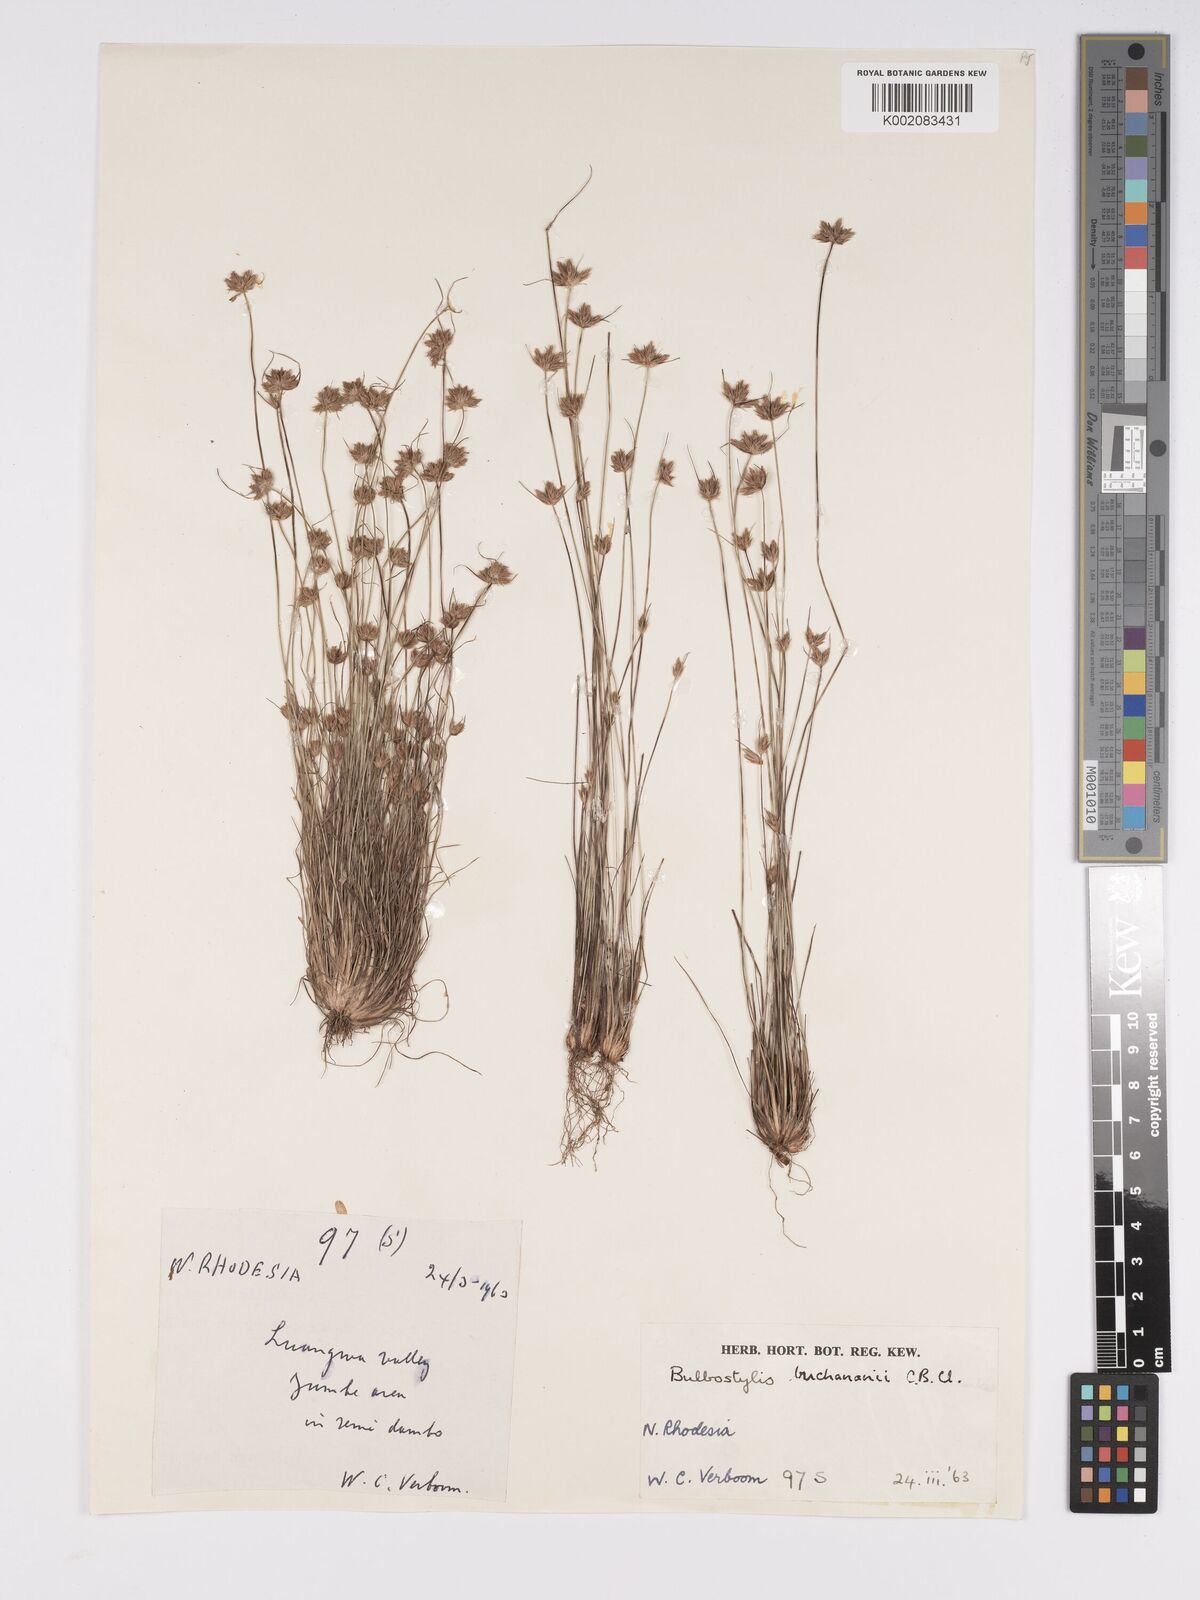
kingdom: Plantae
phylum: Tracheophyta
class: Liliopsida
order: Poales
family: Cyperaceae
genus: Bulbostylis
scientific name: Bulbostylis buchananii
